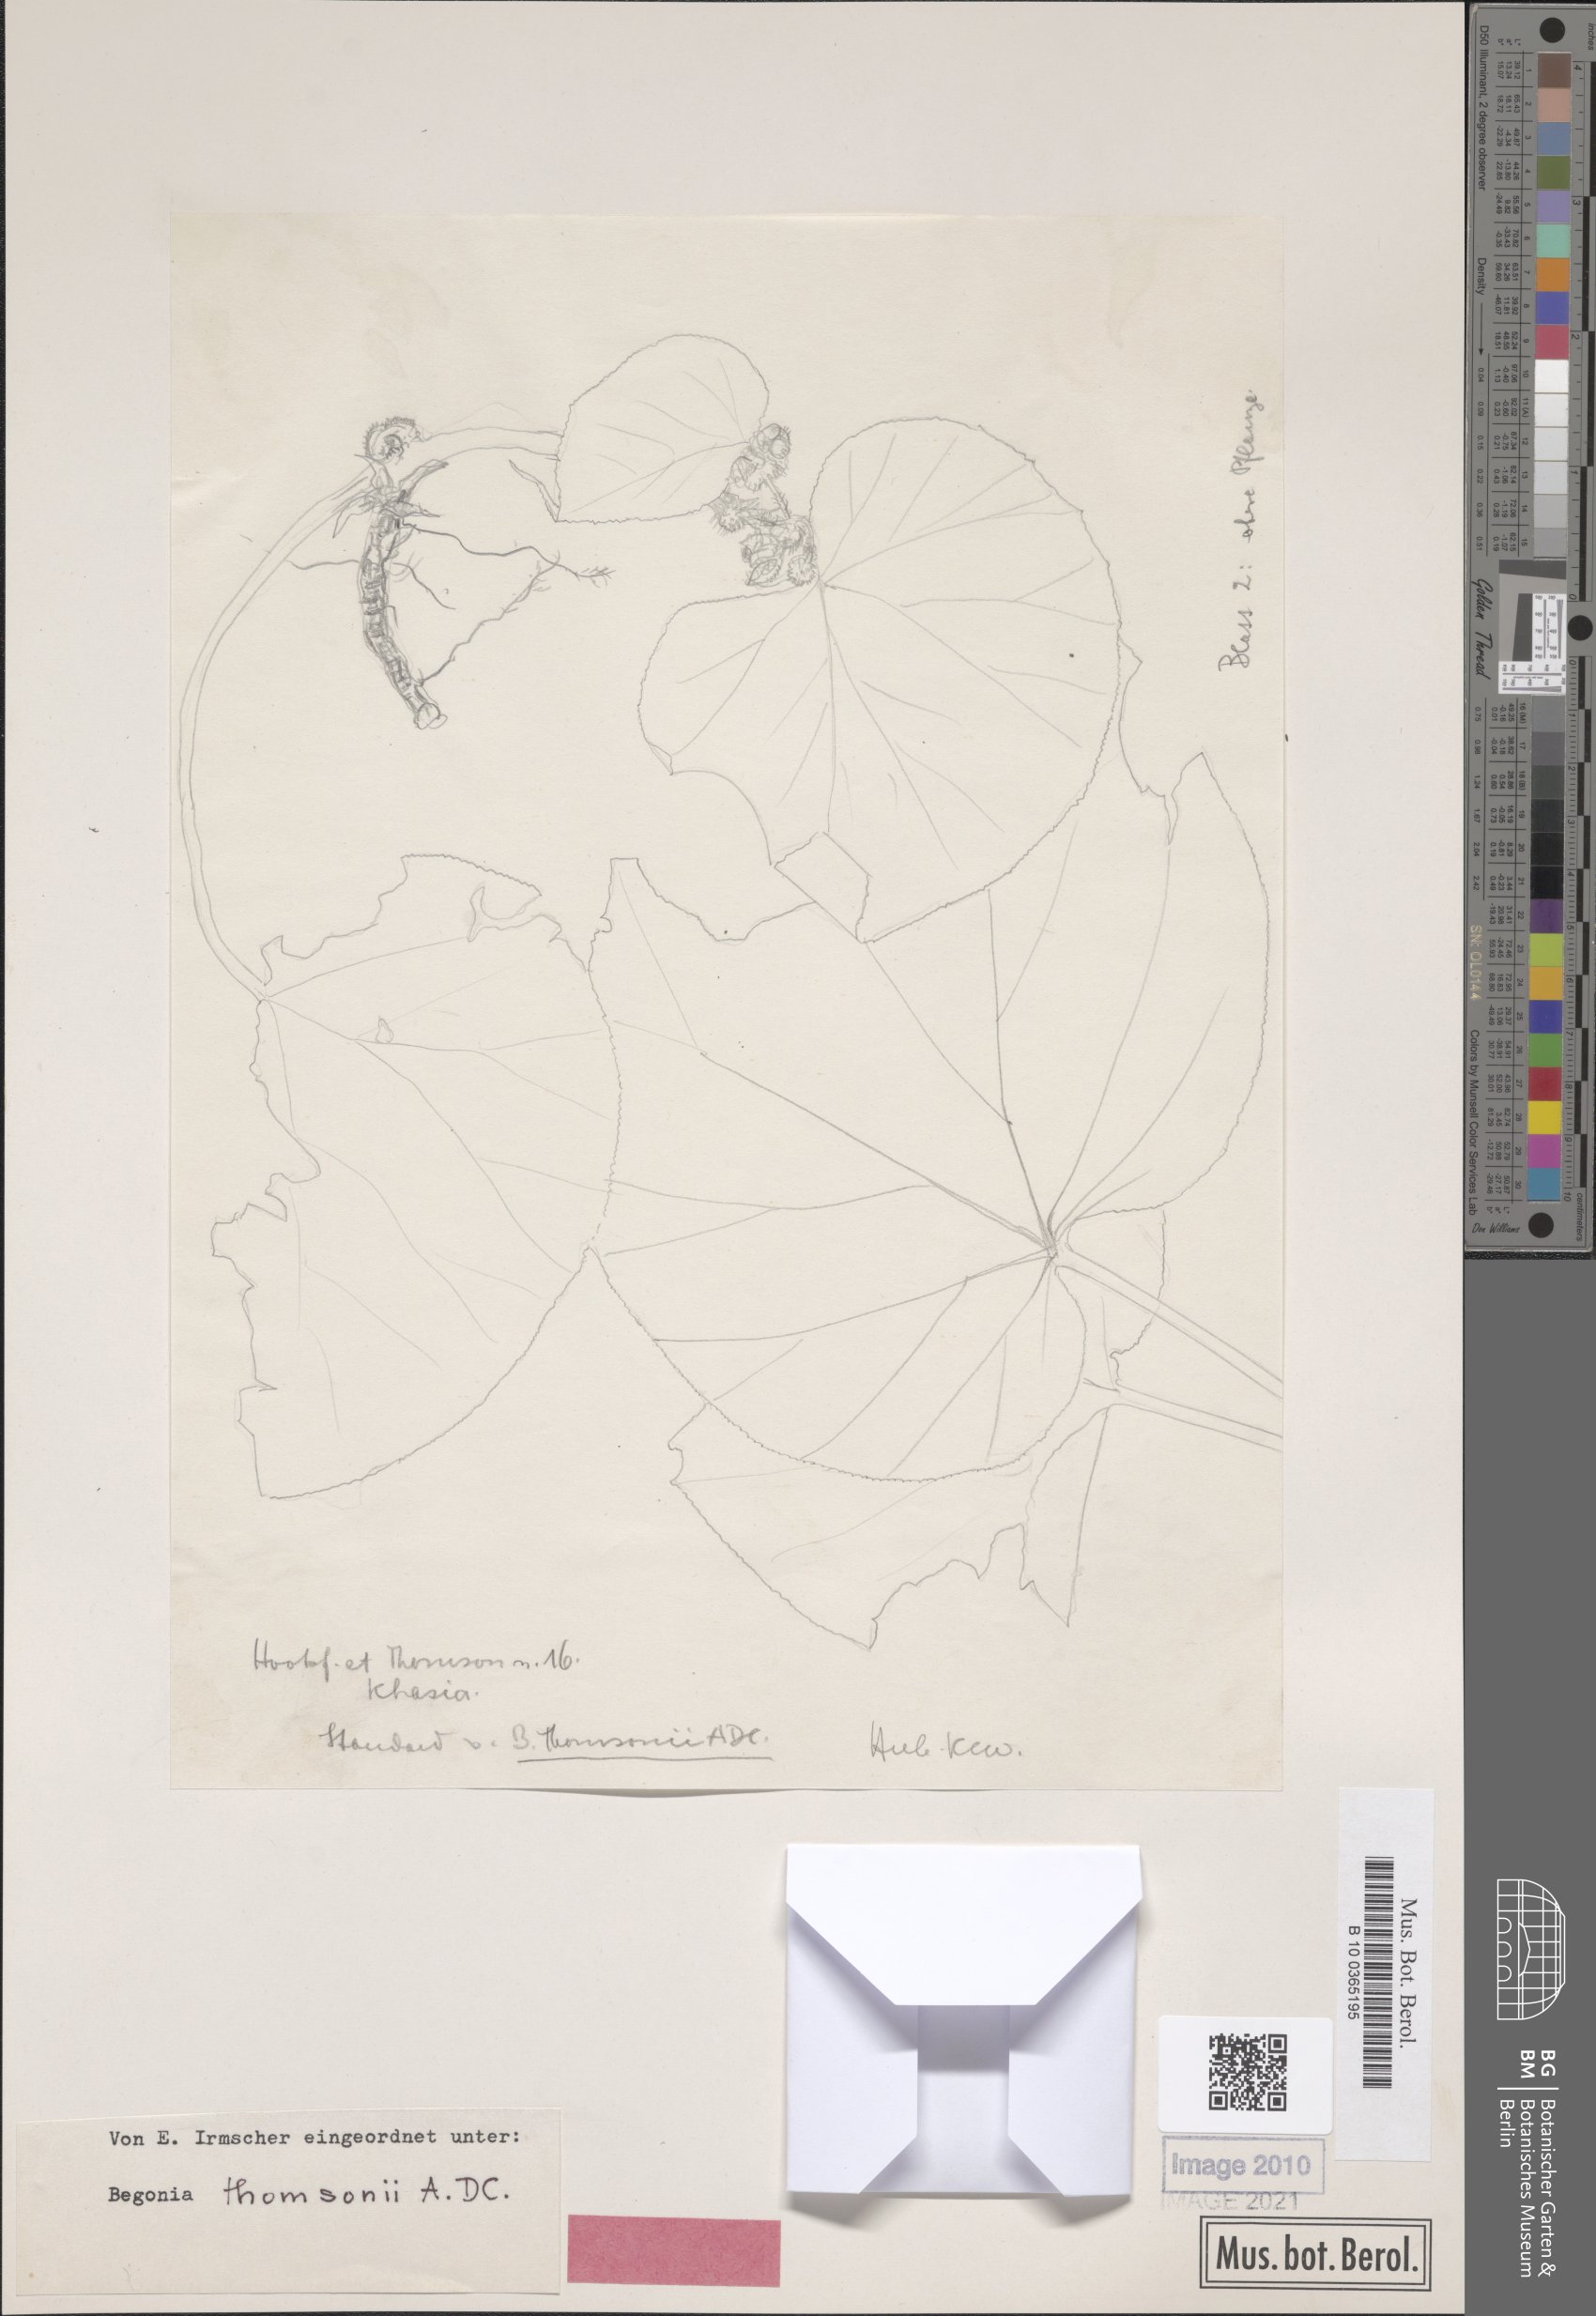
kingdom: Plantae
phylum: Tracheophyta
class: Magnoliopsida
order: Cucurbitales
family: Begoniaceae
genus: Begonia
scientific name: Begonia thomsonii
